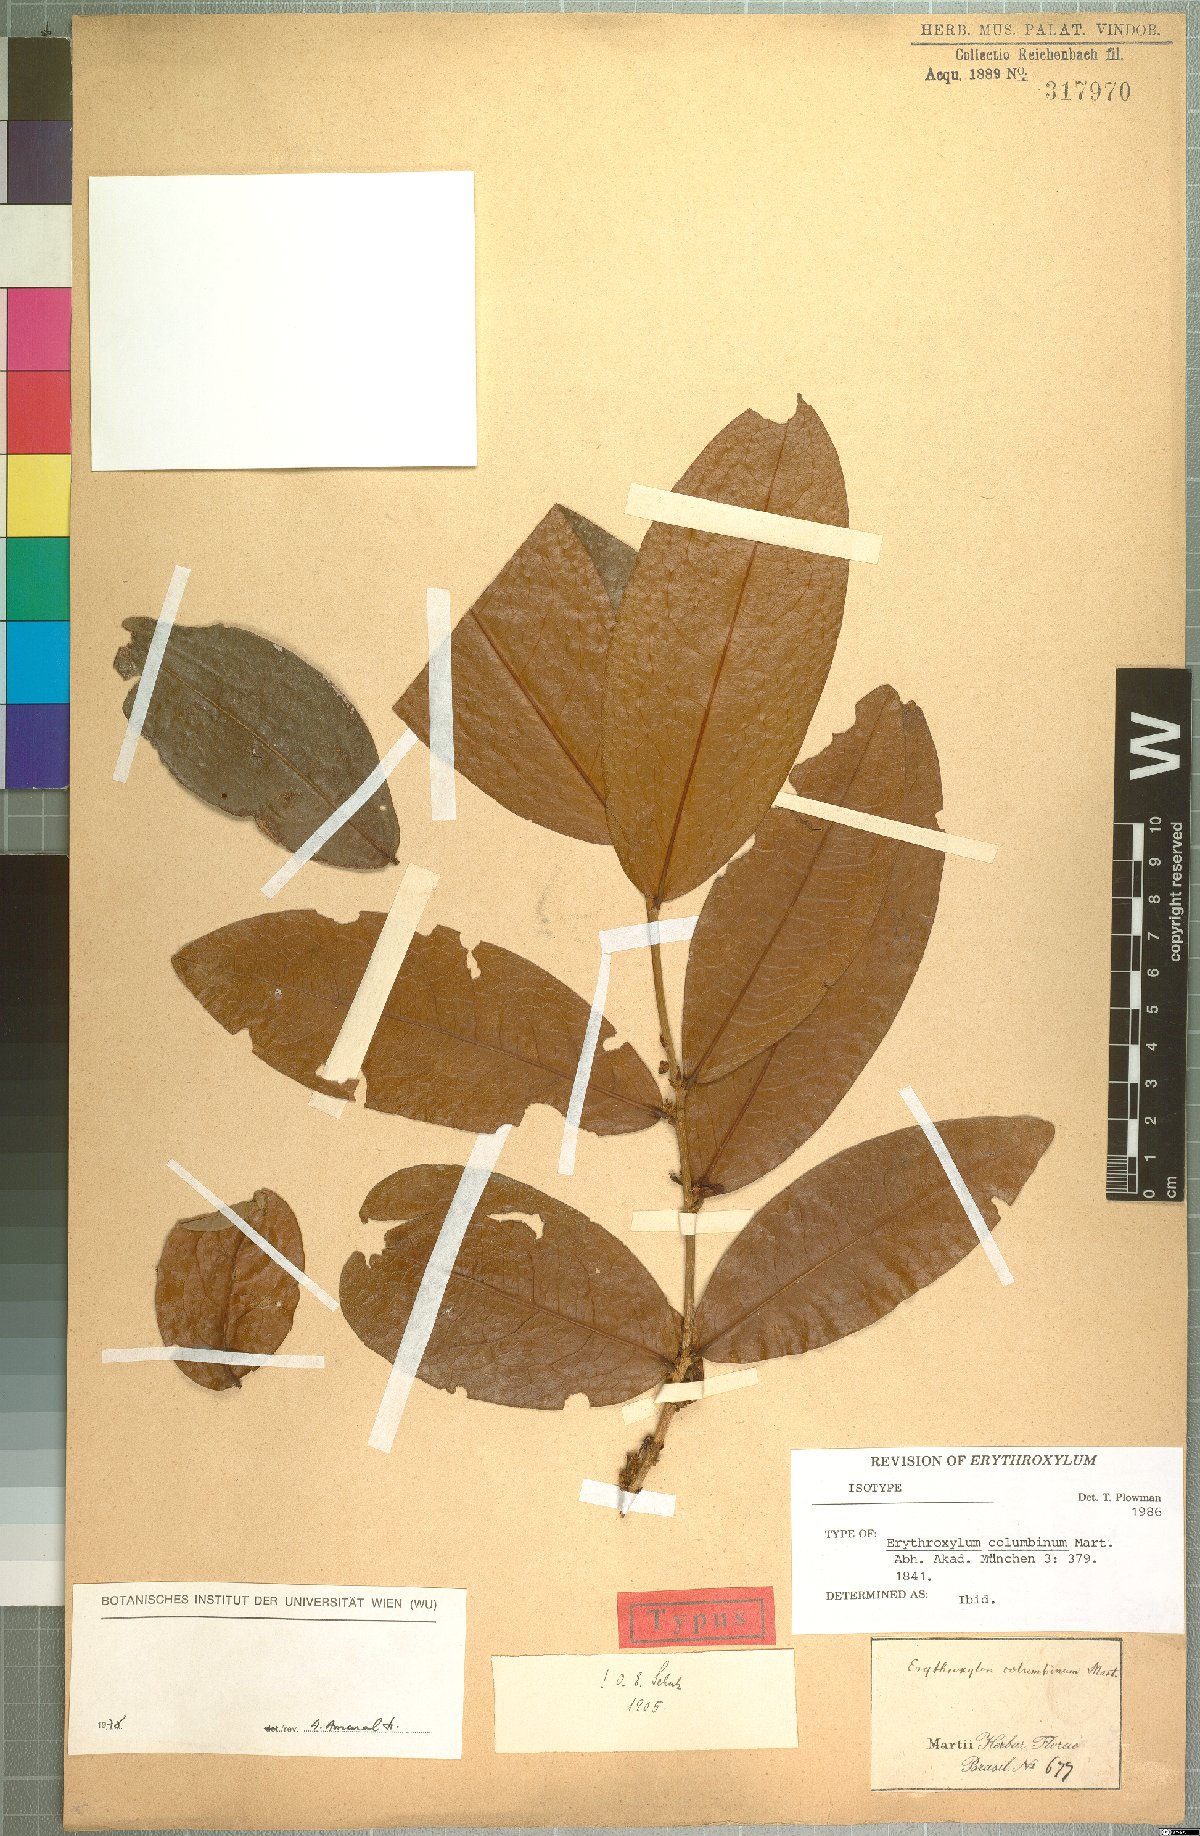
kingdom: Plantae
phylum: Tracheophyta
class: Magnoliopsida
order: Malpighiales
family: Erythroxylaceae
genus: Erythroxylum
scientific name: Erythroxylum columbinum
